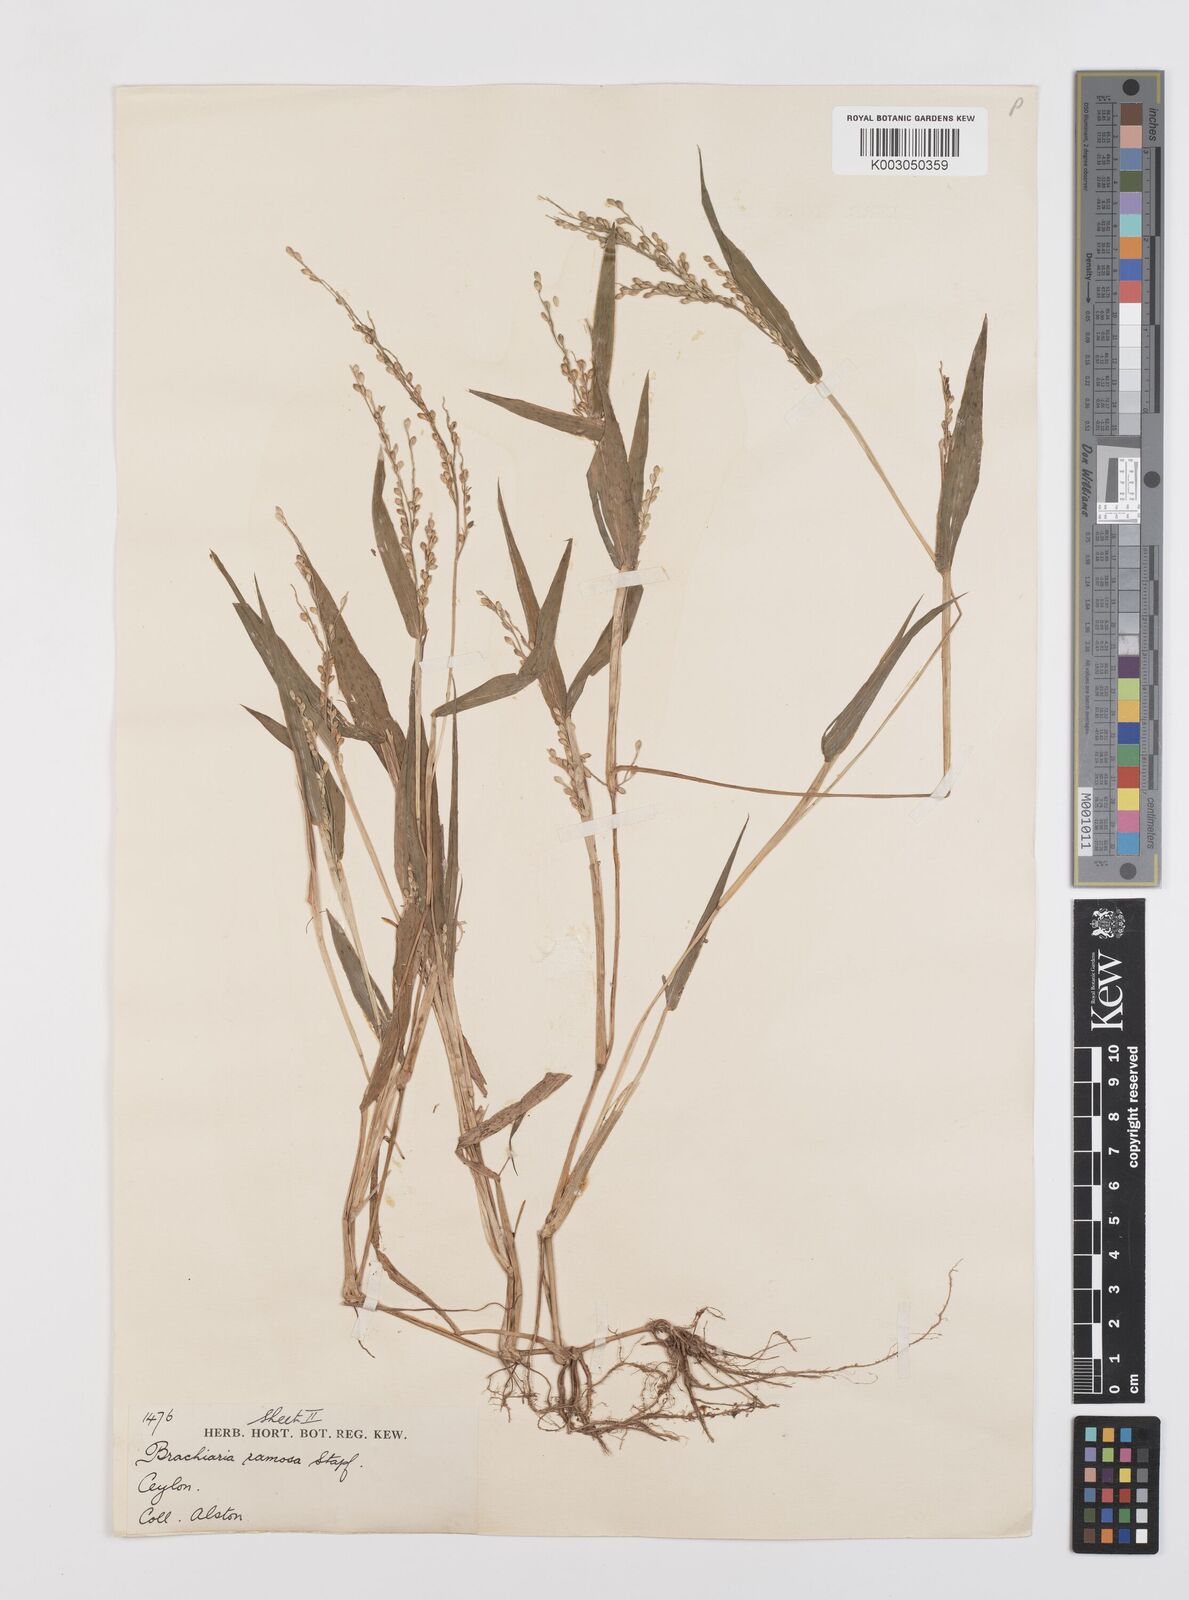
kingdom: Plantae
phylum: Tracheophyta
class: Liliopsida
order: Poales
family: Poaceae
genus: Urochloa
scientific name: Urochloa ramosa
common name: Browntop millet
